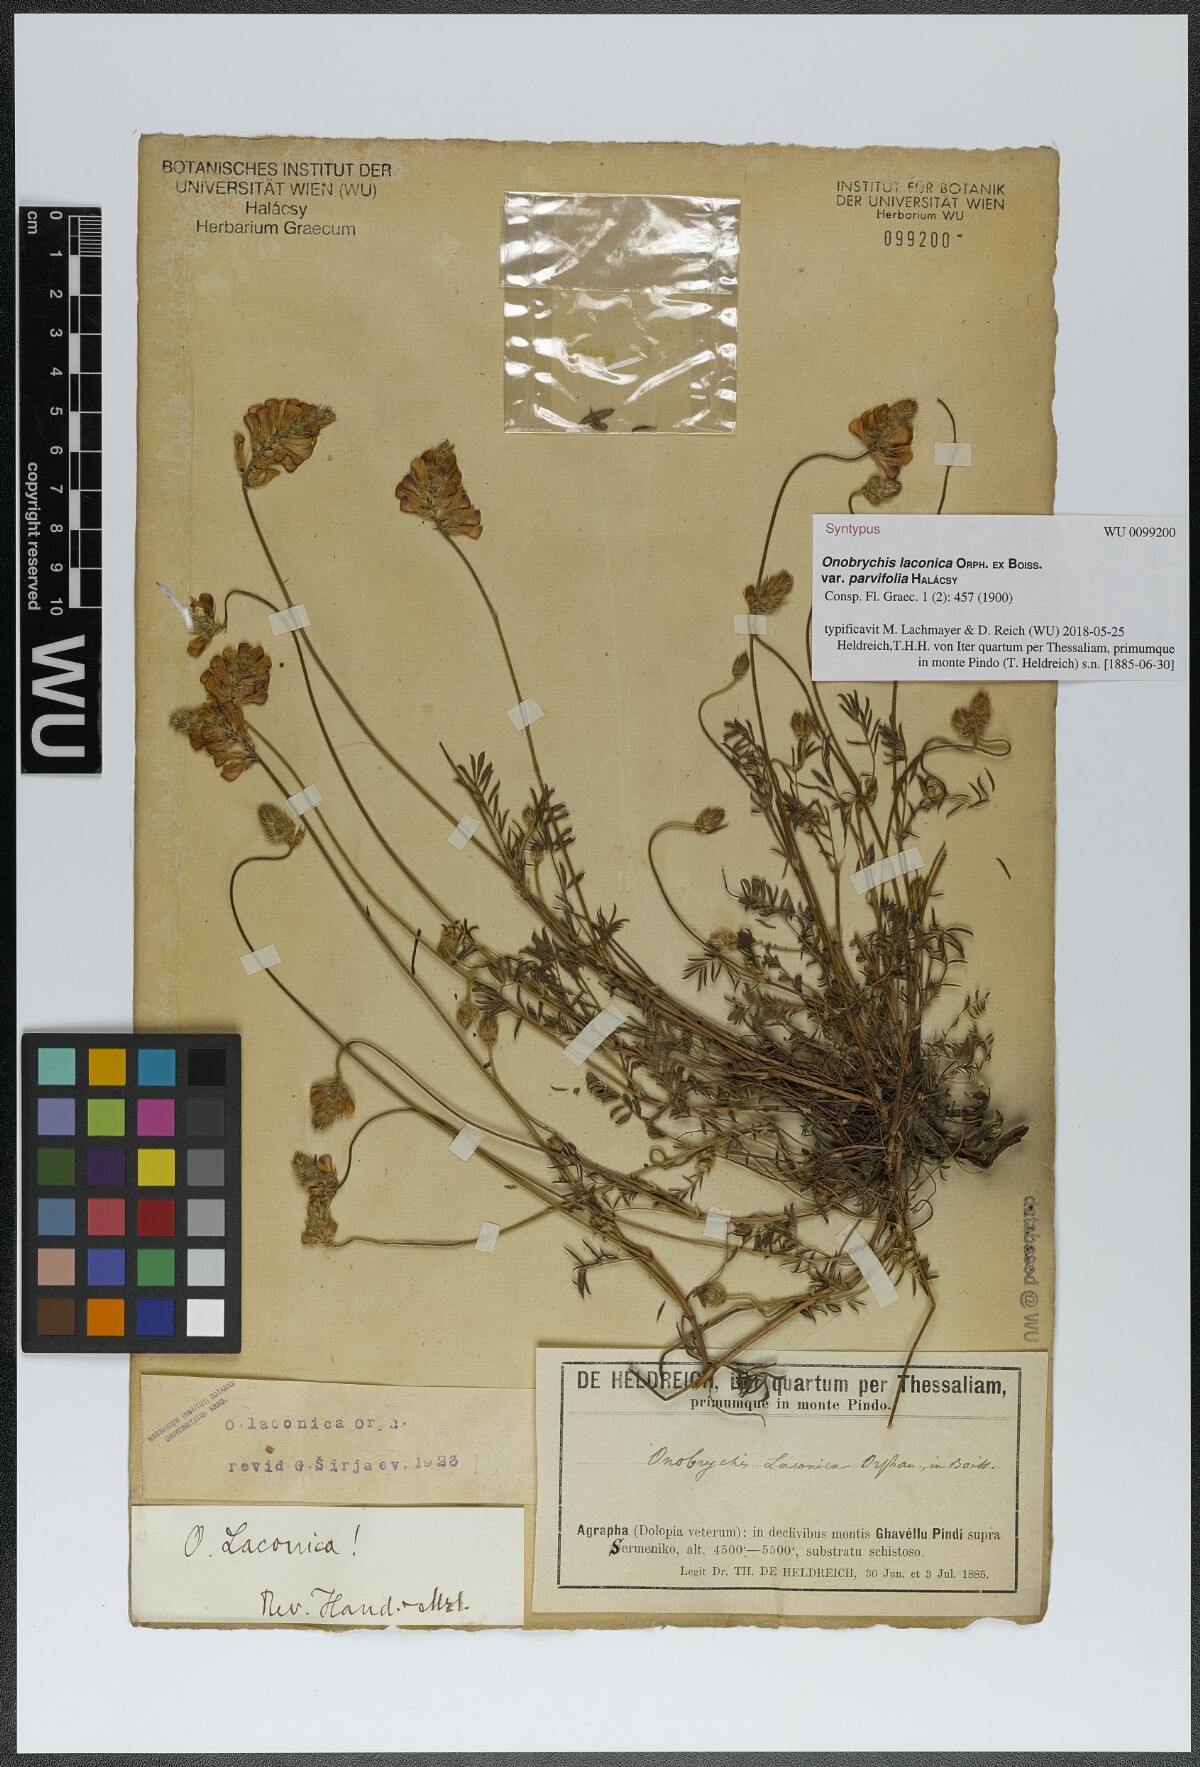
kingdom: Plantae
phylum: Tracheophyta
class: Magnoliopsida
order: Fabales
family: Fabaceae
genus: Onobrychis
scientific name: Onobrychis alba
